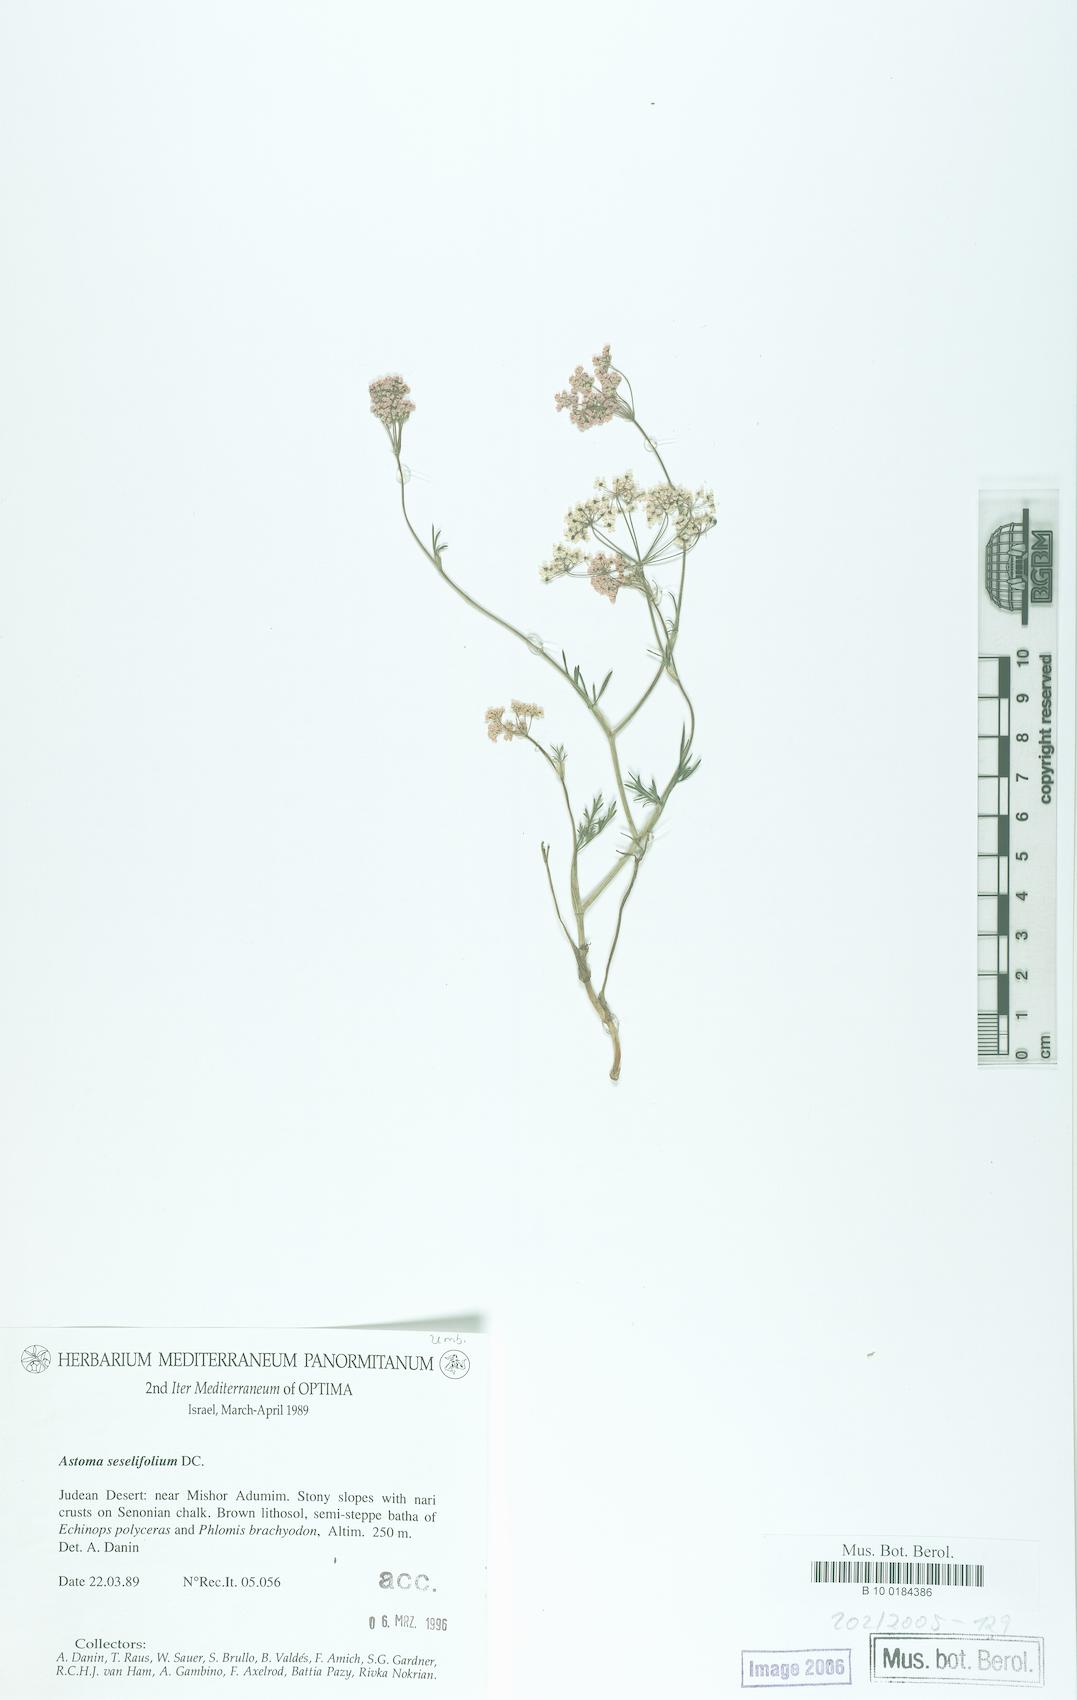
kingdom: Plantae
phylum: Tracheophyta
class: Magnoliopsida
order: Apiales
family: Apiaceae
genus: Astomaea
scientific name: Astomaea seselifolium
